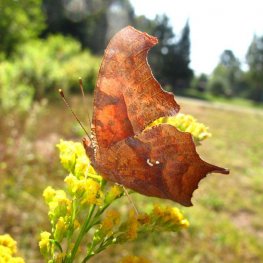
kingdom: Animalia
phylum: Arthropoda
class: Insecta
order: Lepidoptera
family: Nymphalidae
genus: Polygonia
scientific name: Polygonia interrogationis
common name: Question Mark
